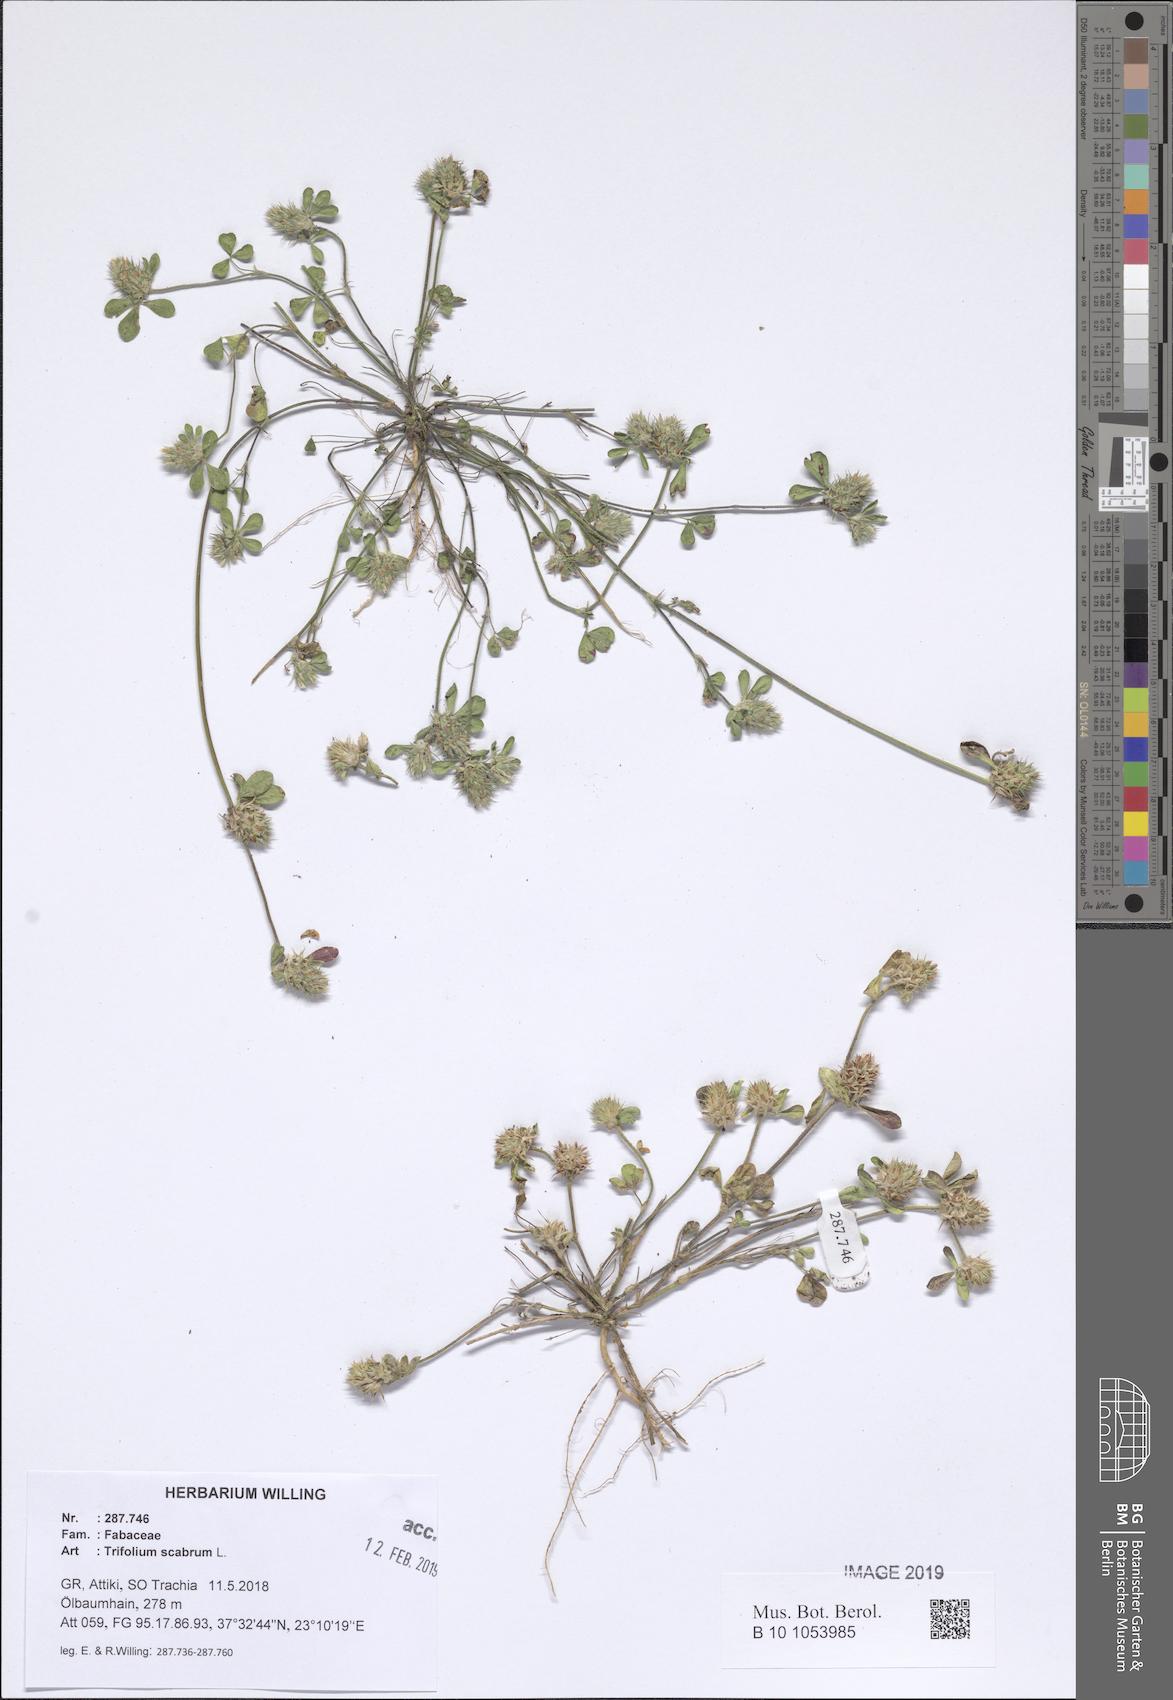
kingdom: Plantae
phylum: Tracheophyta
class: Magnoliopsida
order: Fabales
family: Fabaceae
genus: Trifolium
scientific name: Trifolium scabrum
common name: Rough clover
